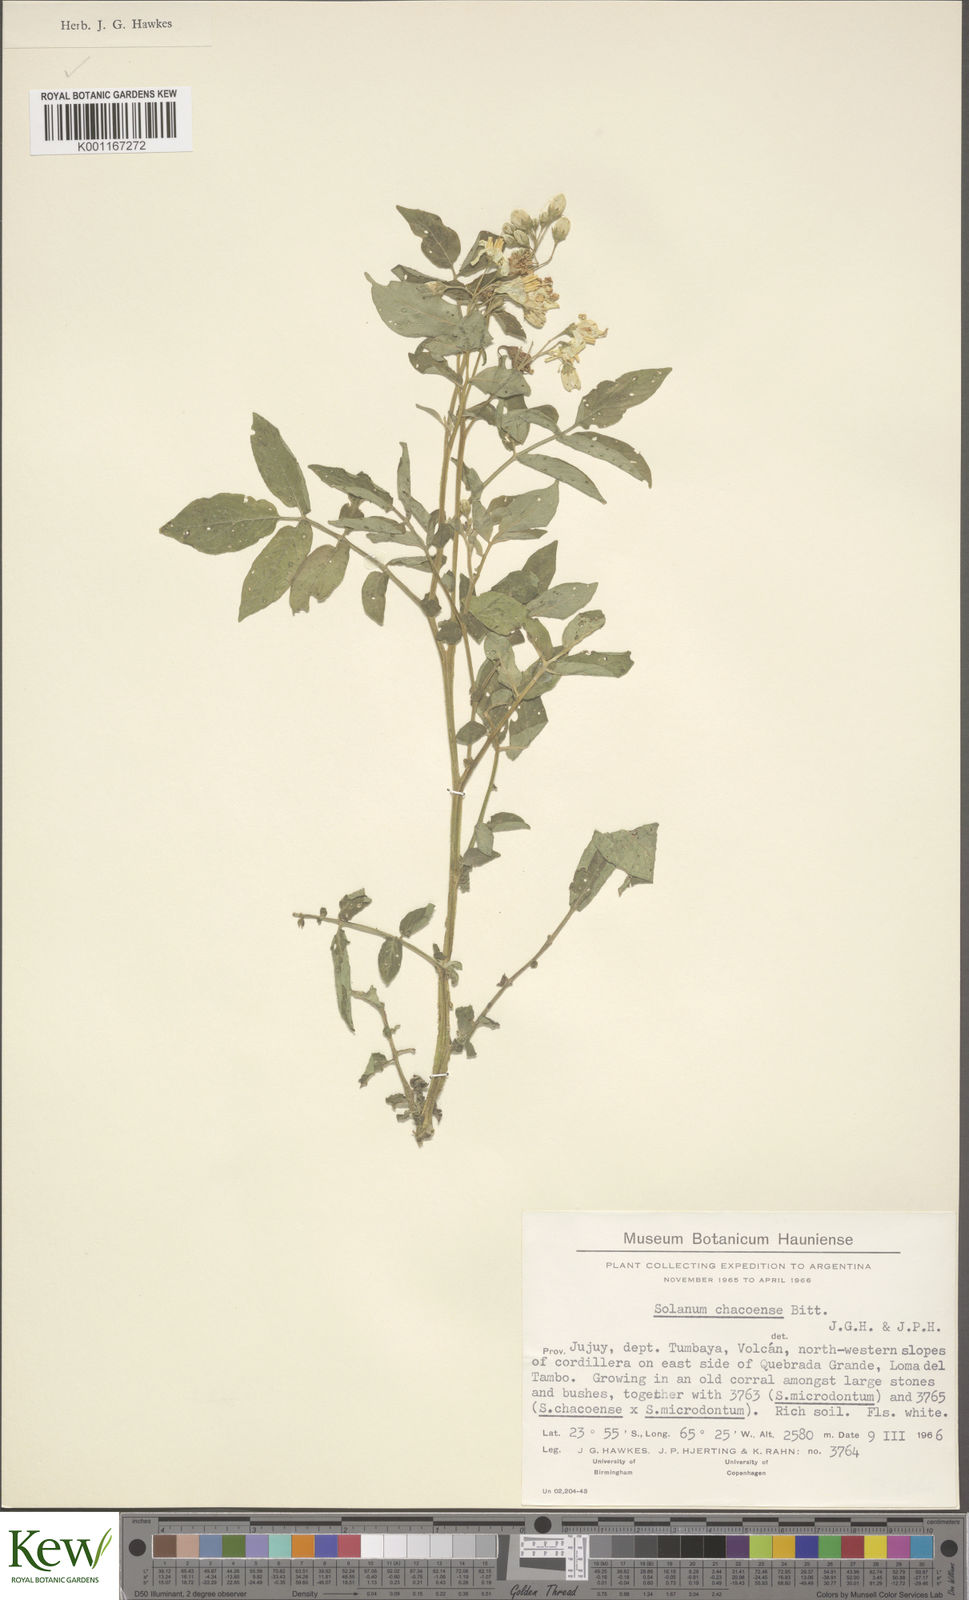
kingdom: Plantae
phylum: Tracheophyta
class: Magnoliopsida
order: Solanales
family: Solanaceae
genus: Solanum
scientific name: Solanum chacoense
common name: Chaco potato
